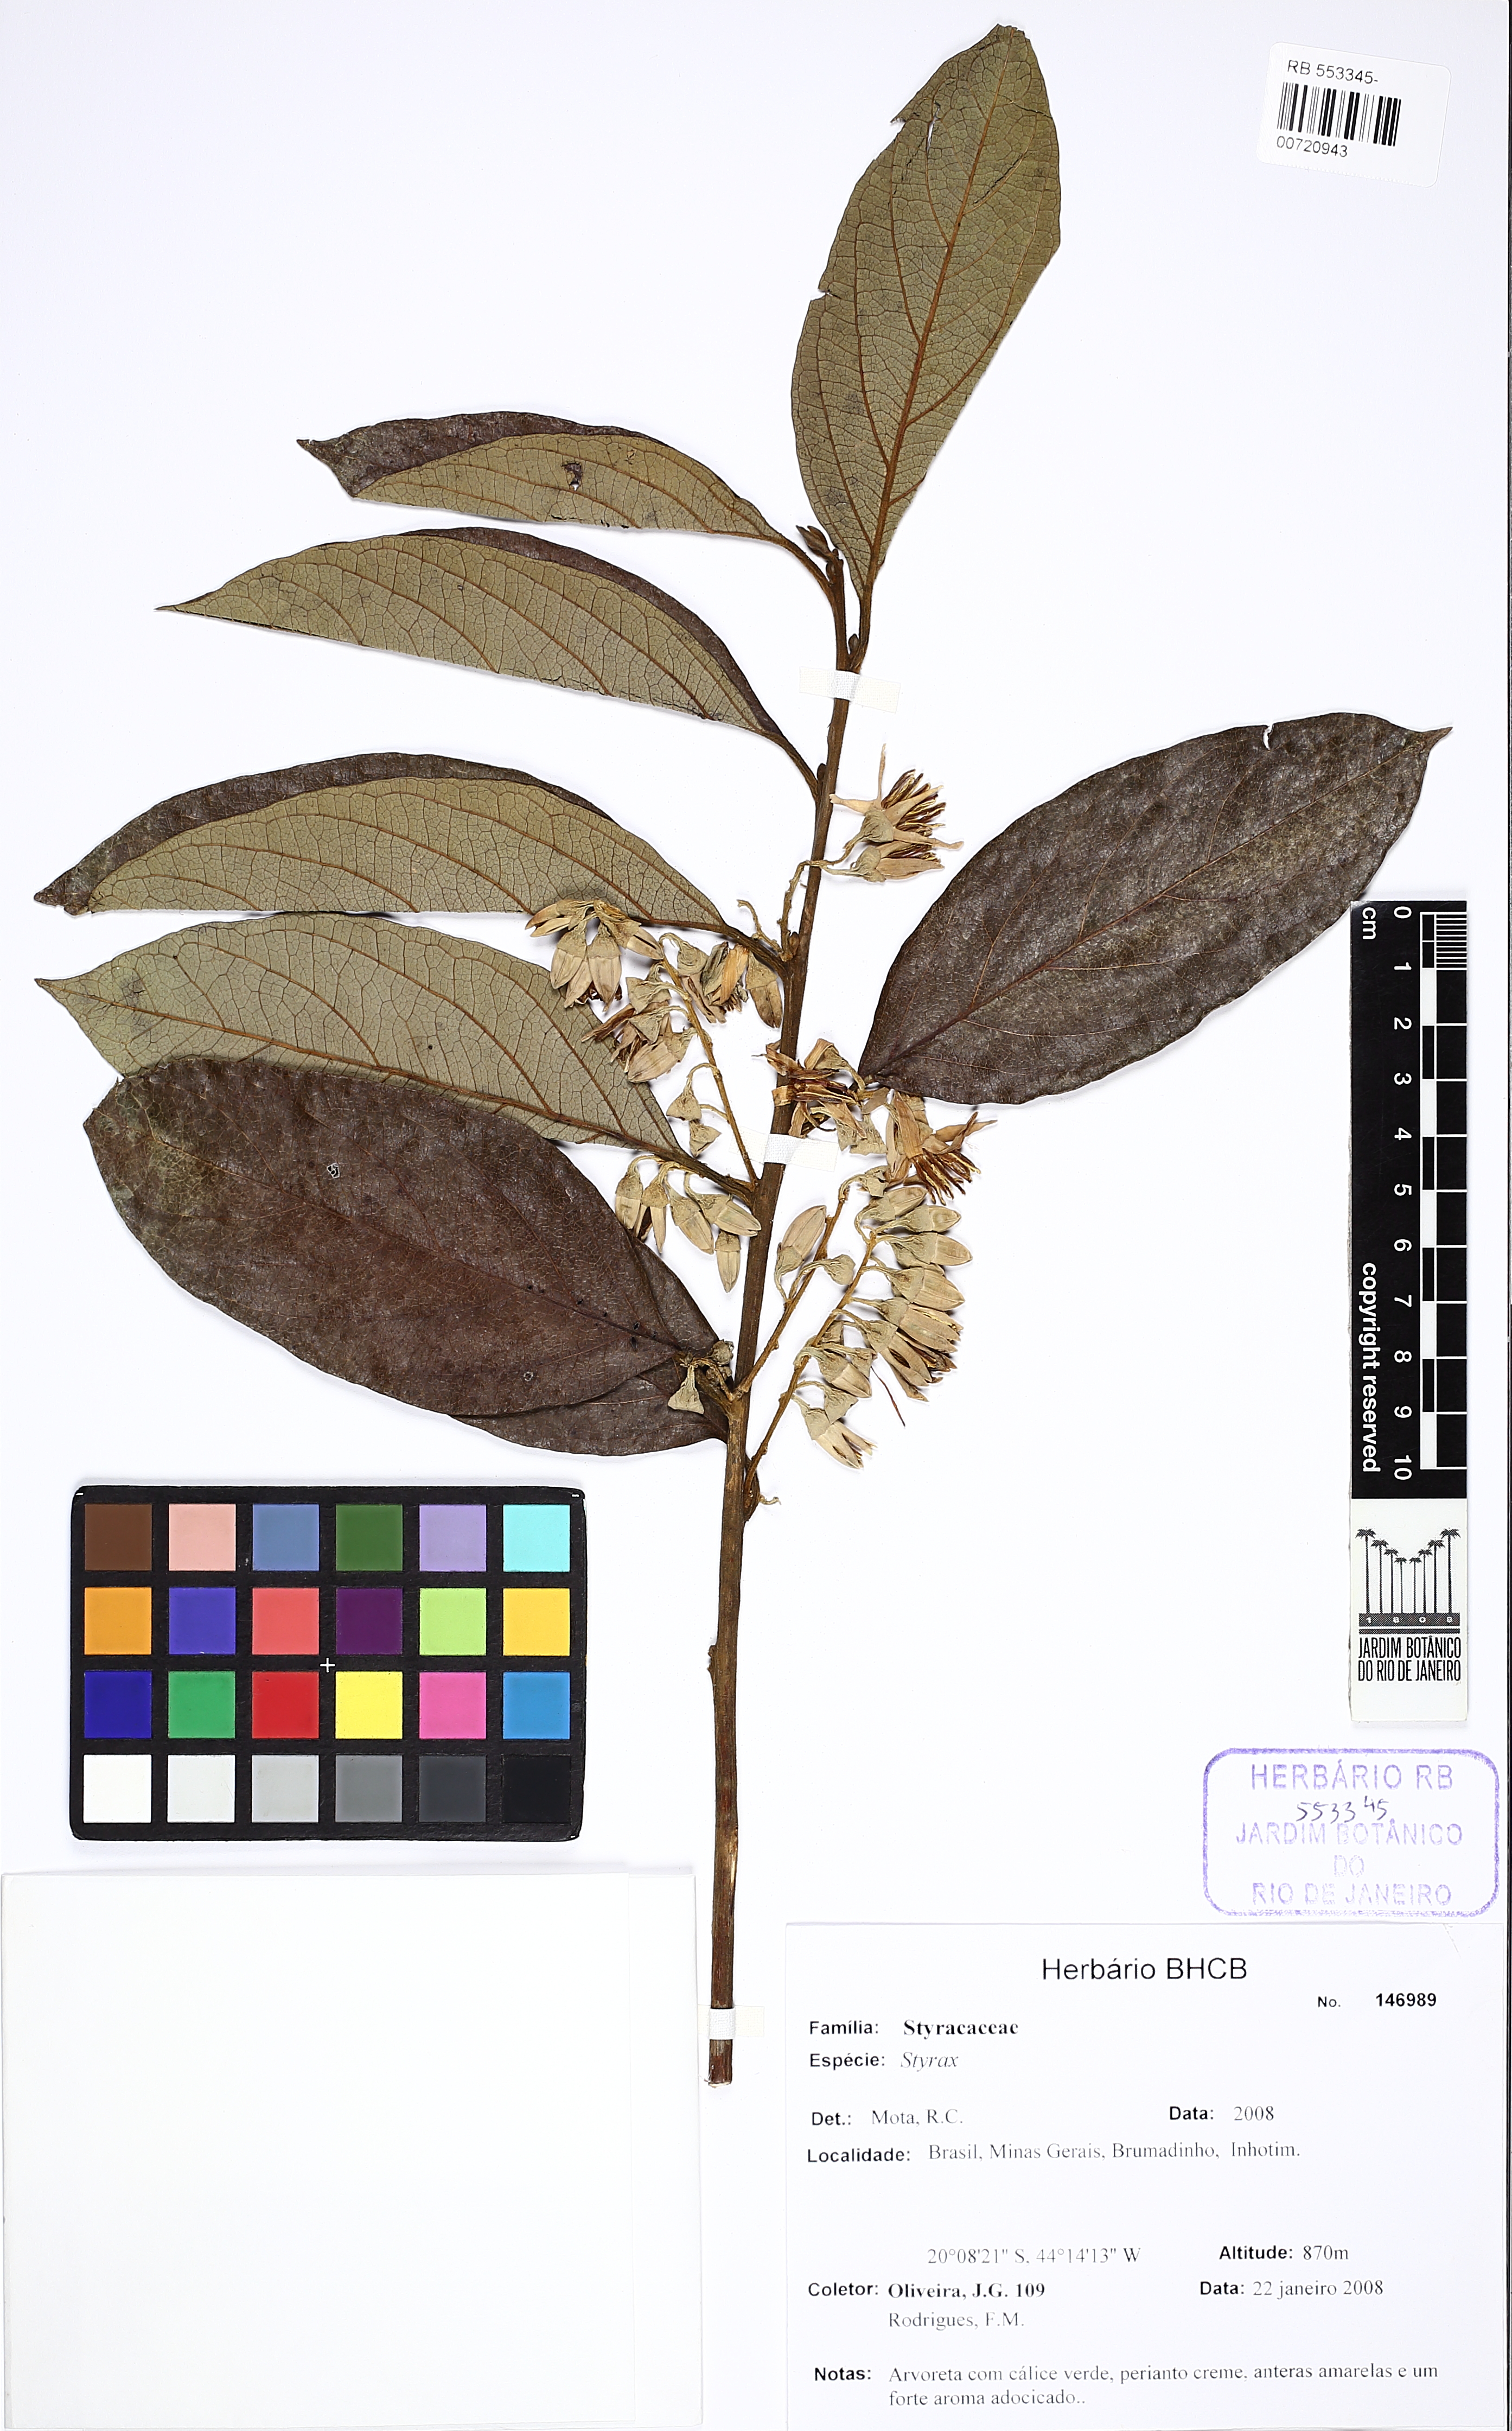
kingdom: Plantae
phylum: Tracheophyta
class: Magnoliopsida
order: Ericales
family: Styracaceae
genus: Styrax
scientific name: Styrax
